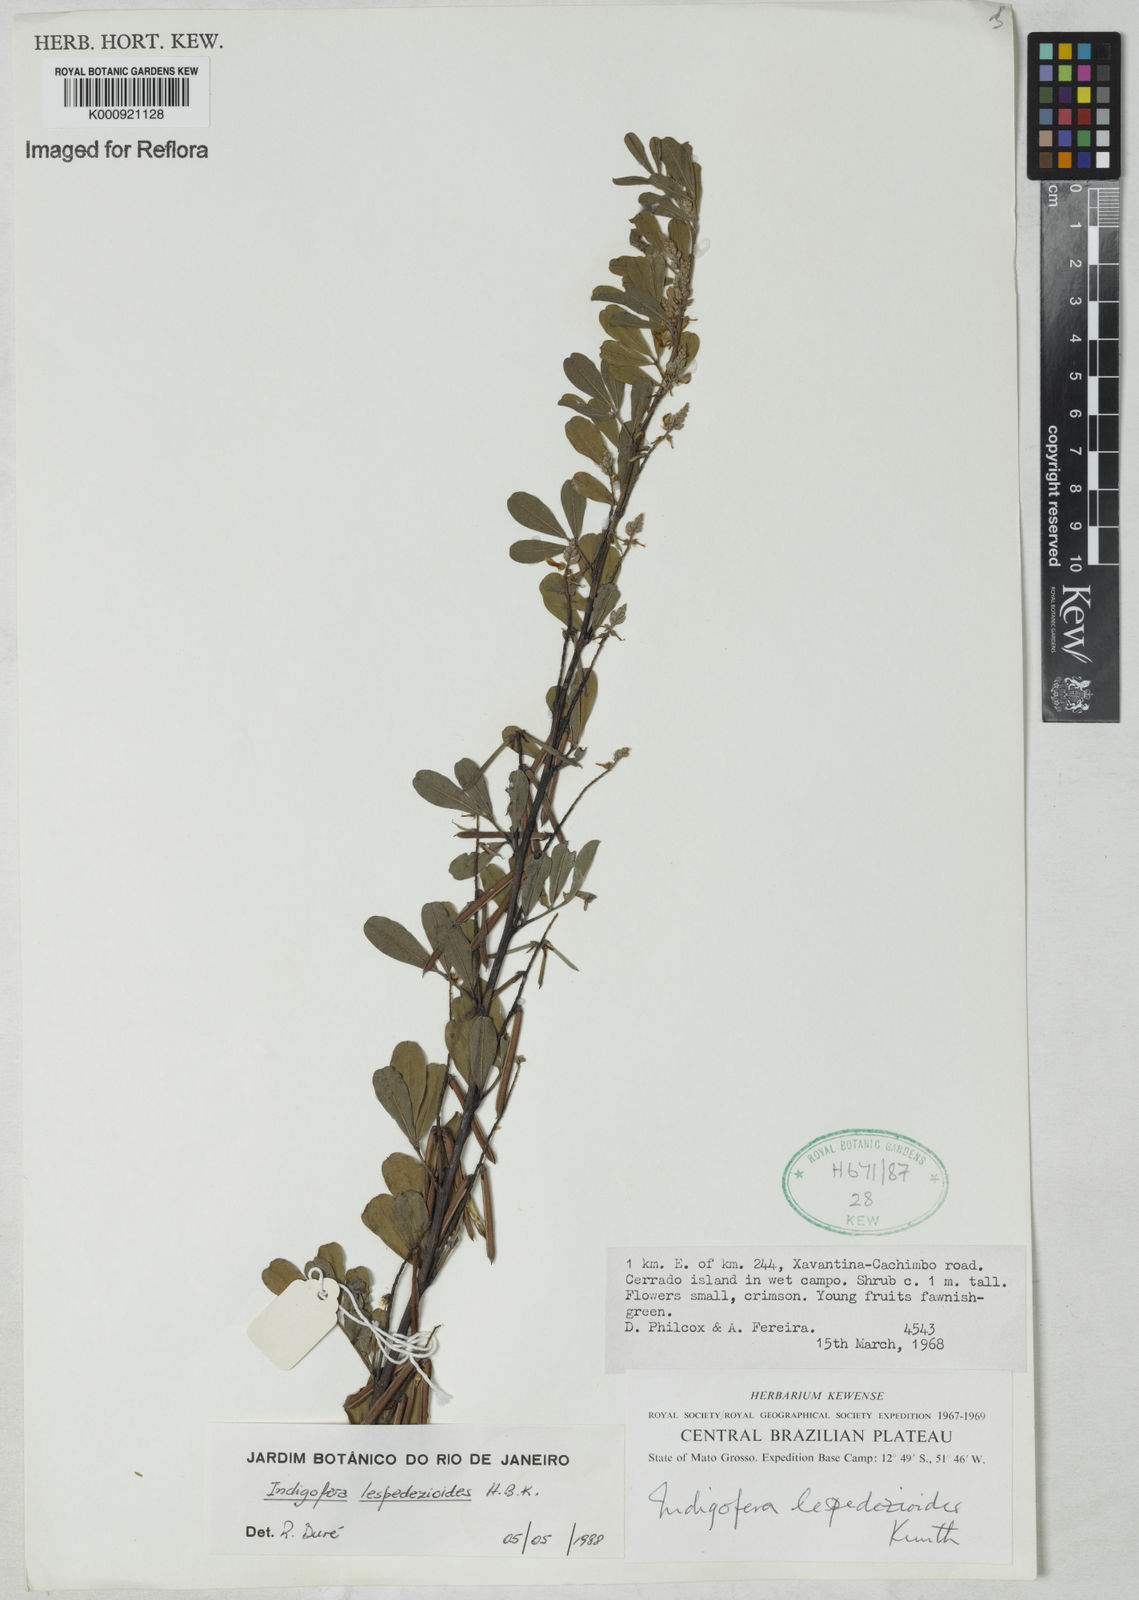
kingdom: Plantae
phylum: Tracheophyta
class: Magnoliopsida
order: Fabales
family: Fabaceae
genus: Indigofera
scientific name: Indigofera lespedezioides
